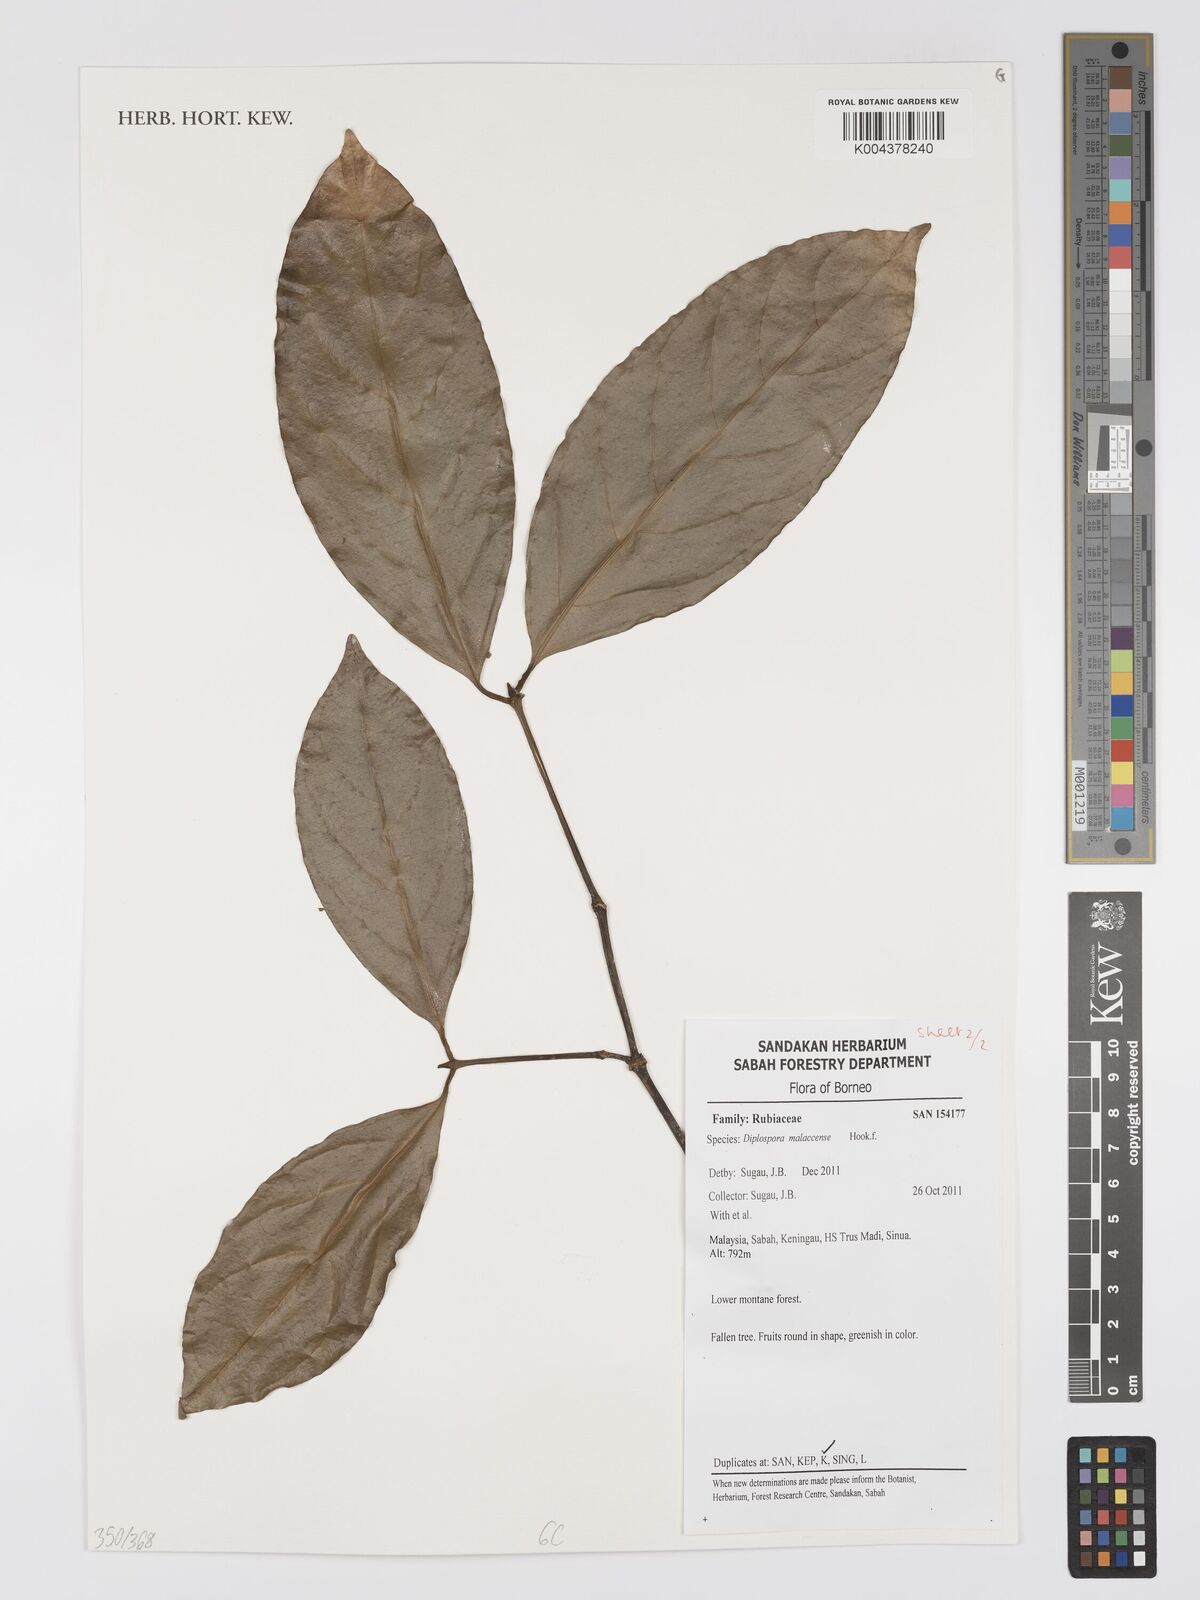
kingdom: Plantae
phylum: Tracheophyta
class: Magnoliopsida
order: Gentianales
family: Rubiaceae
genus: Discospermum
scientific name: Discospermum malaccense
